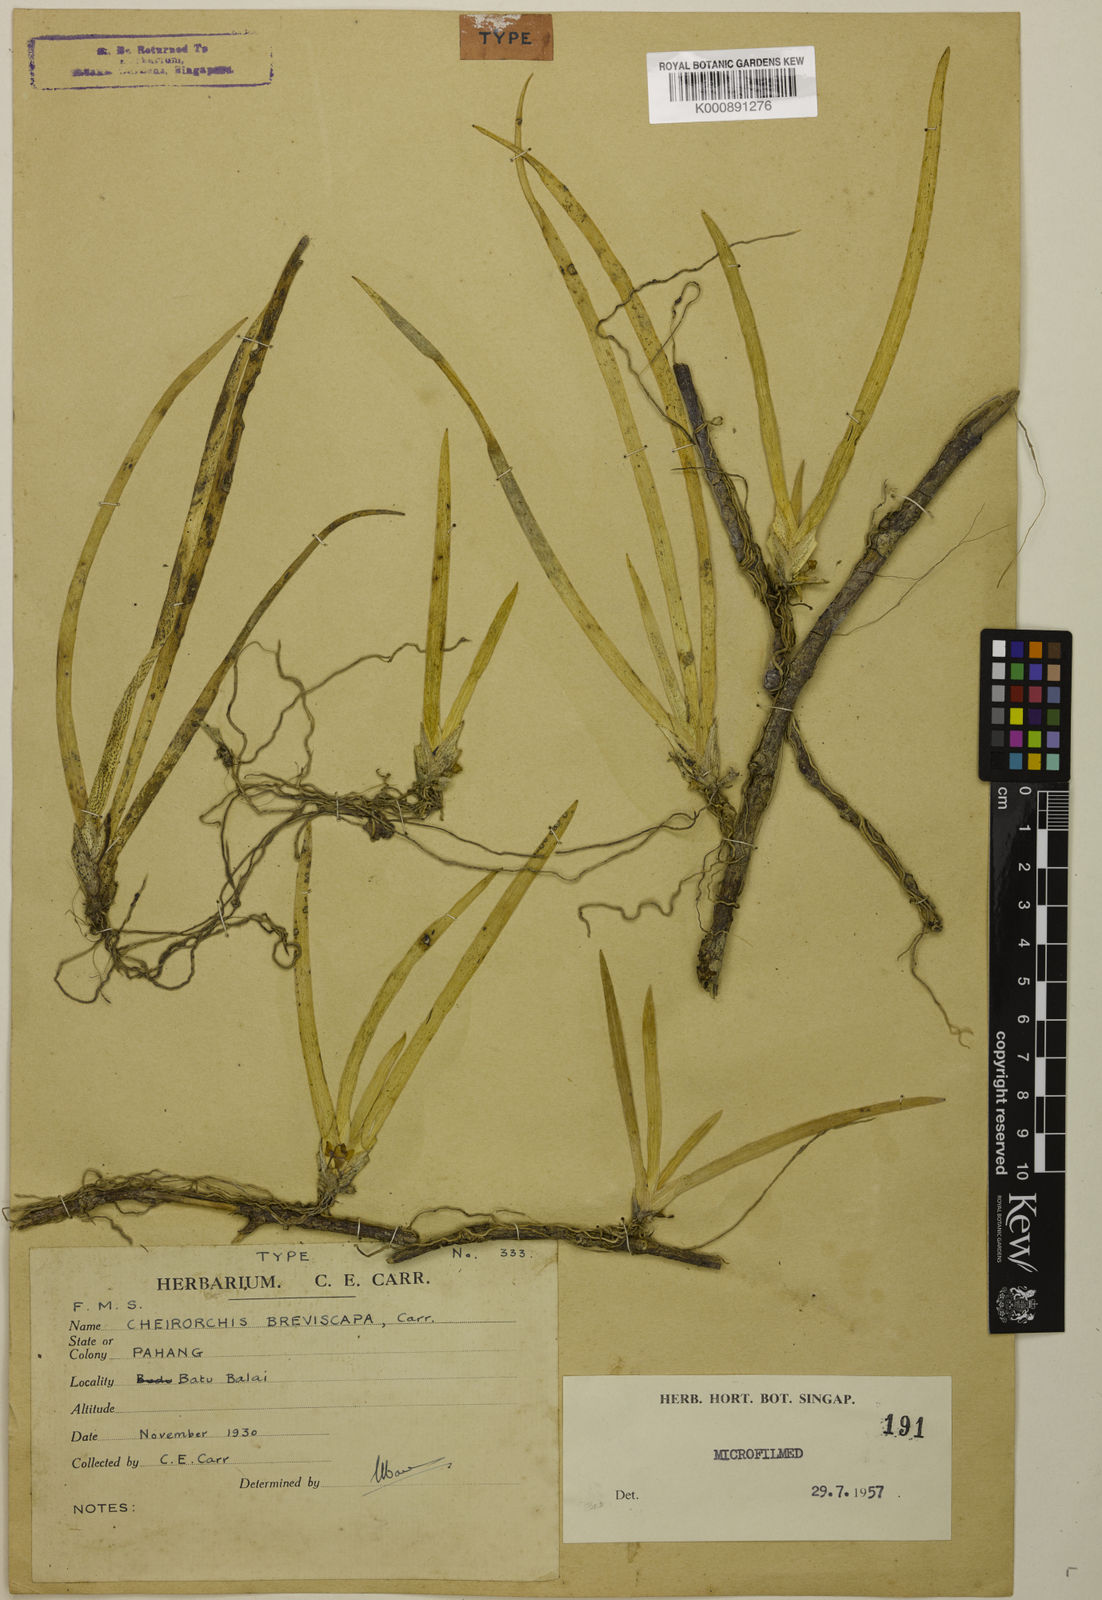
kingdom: Plantae
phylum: Tracheophyta
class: Liliopsida
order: Asparagales
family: Orchidaceae
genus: Thrixspermum
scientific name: Thrixspermum breviscapum
